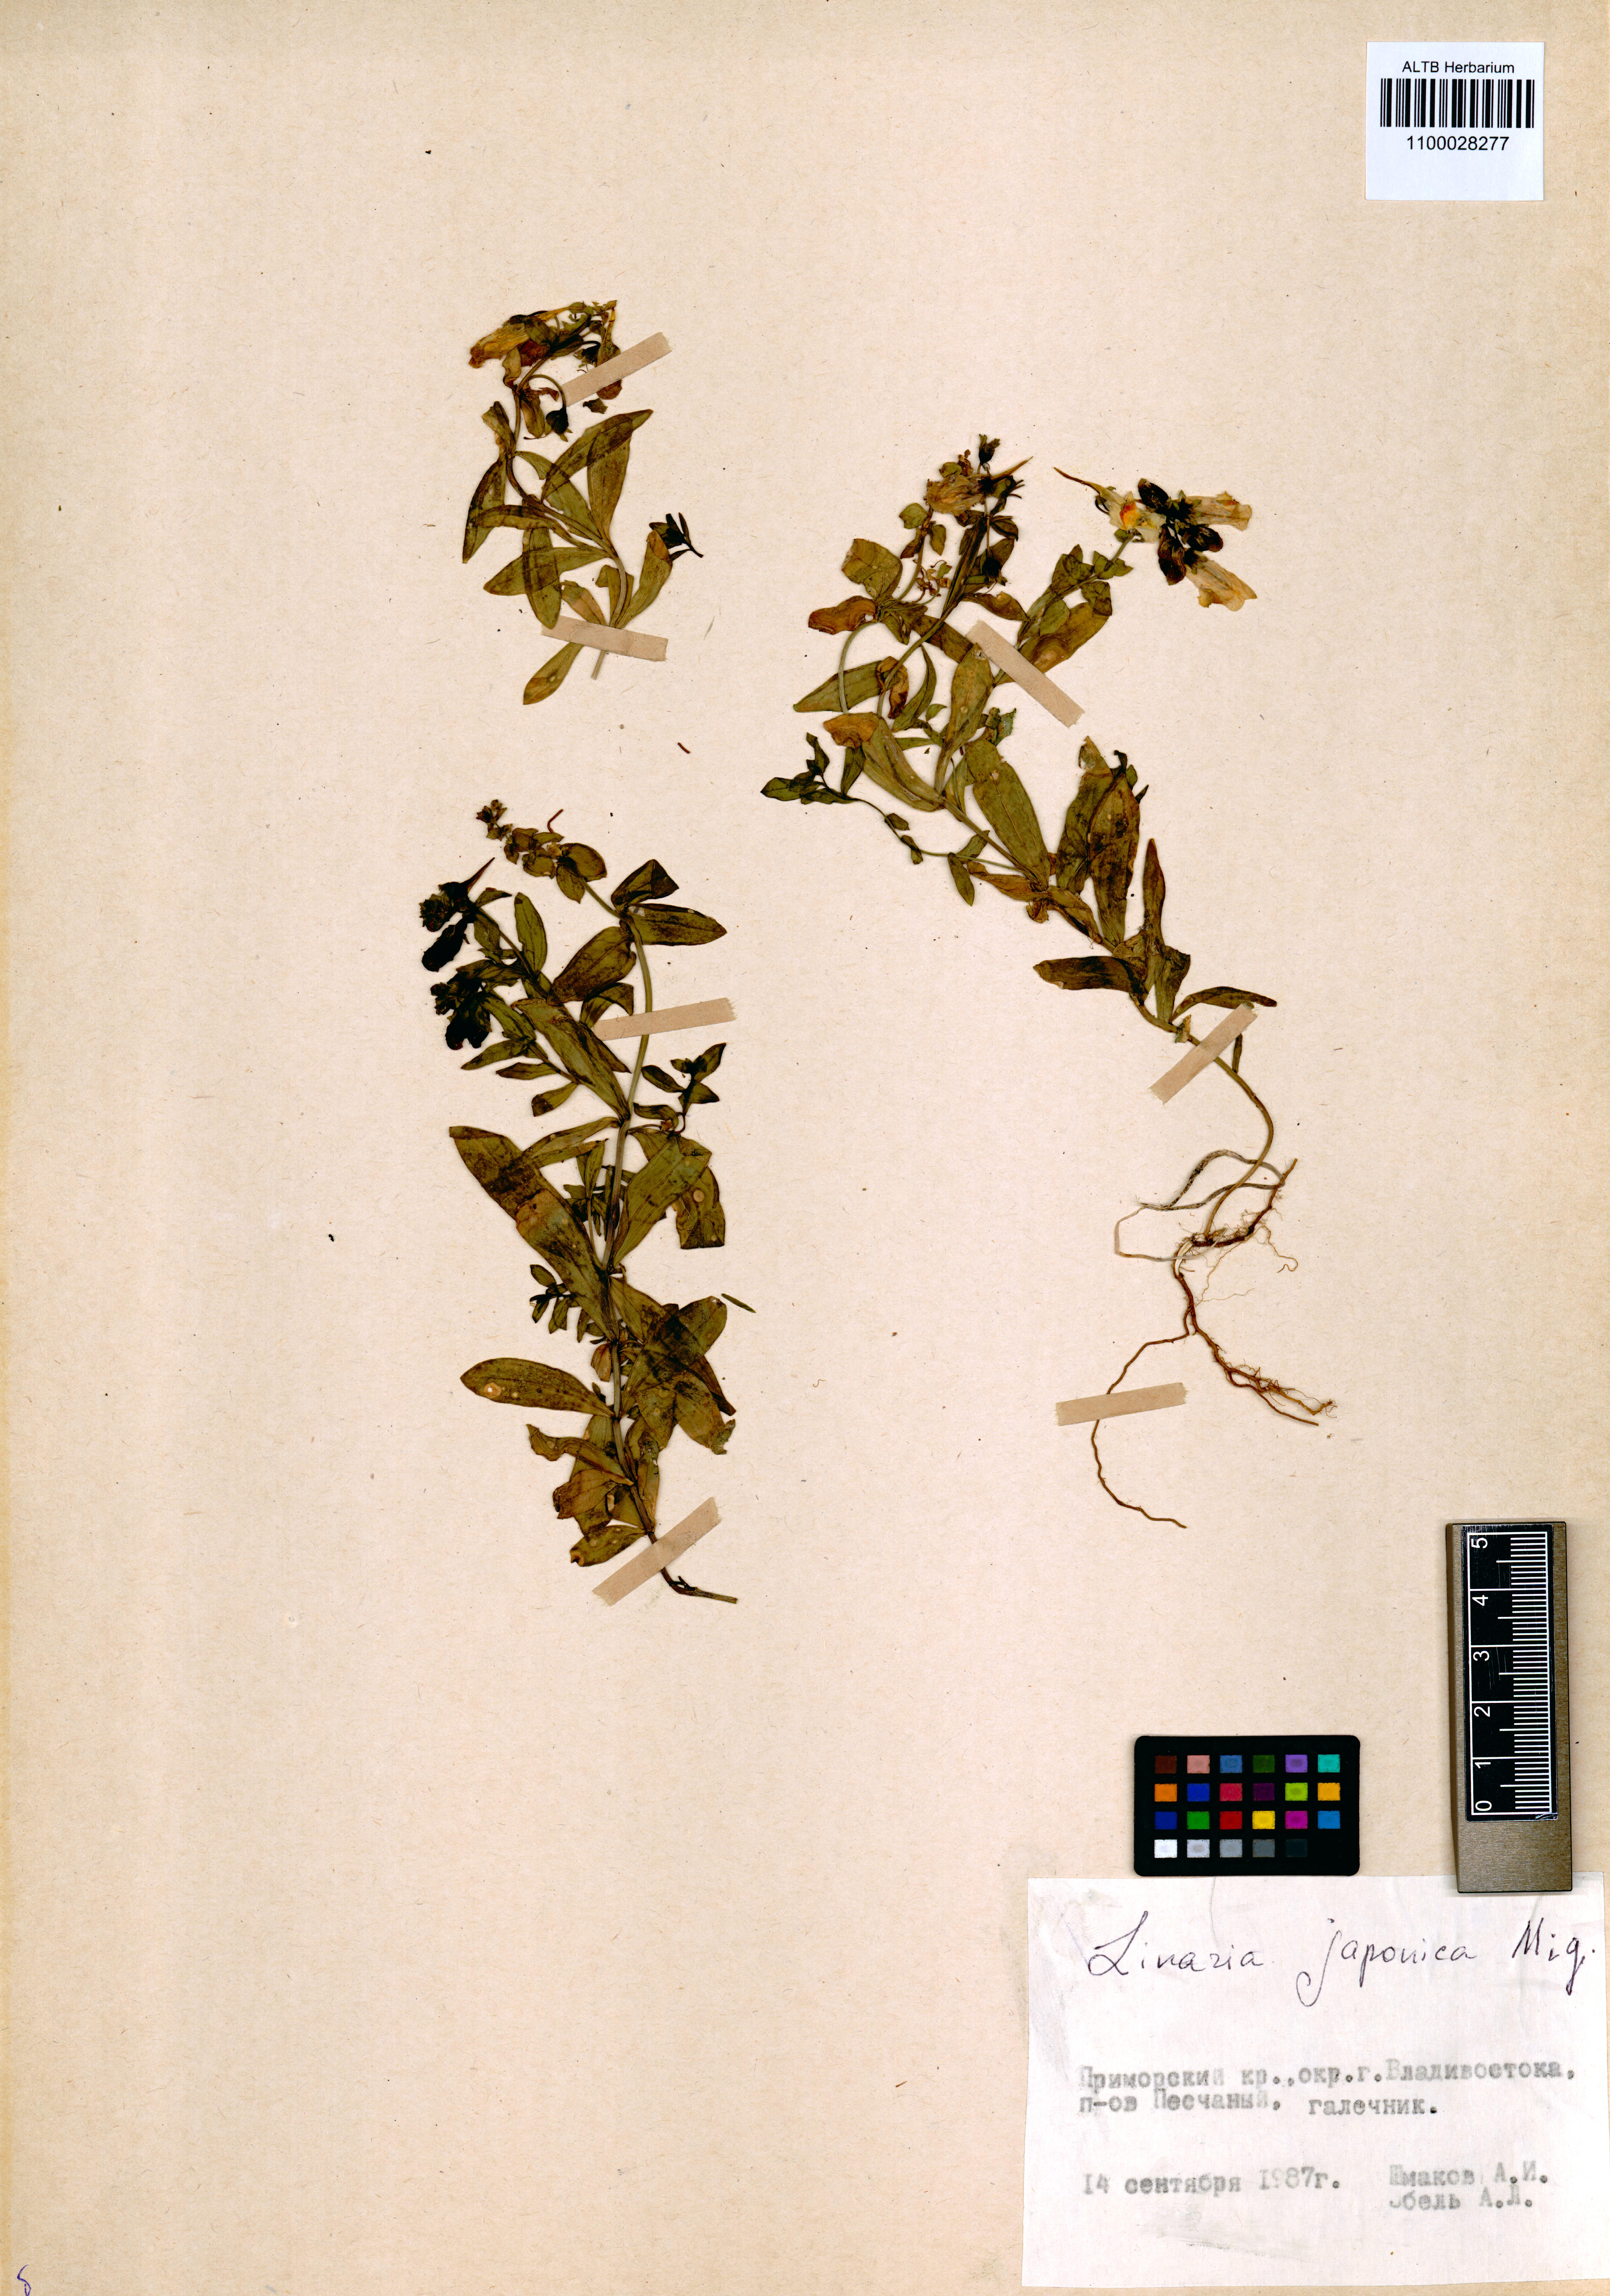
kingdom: Plantae
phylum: Tracheophyta
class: Magnoliopsida
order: Lamiales
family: Plantaginaceae
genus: Linaria
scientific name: Linaria japonica
